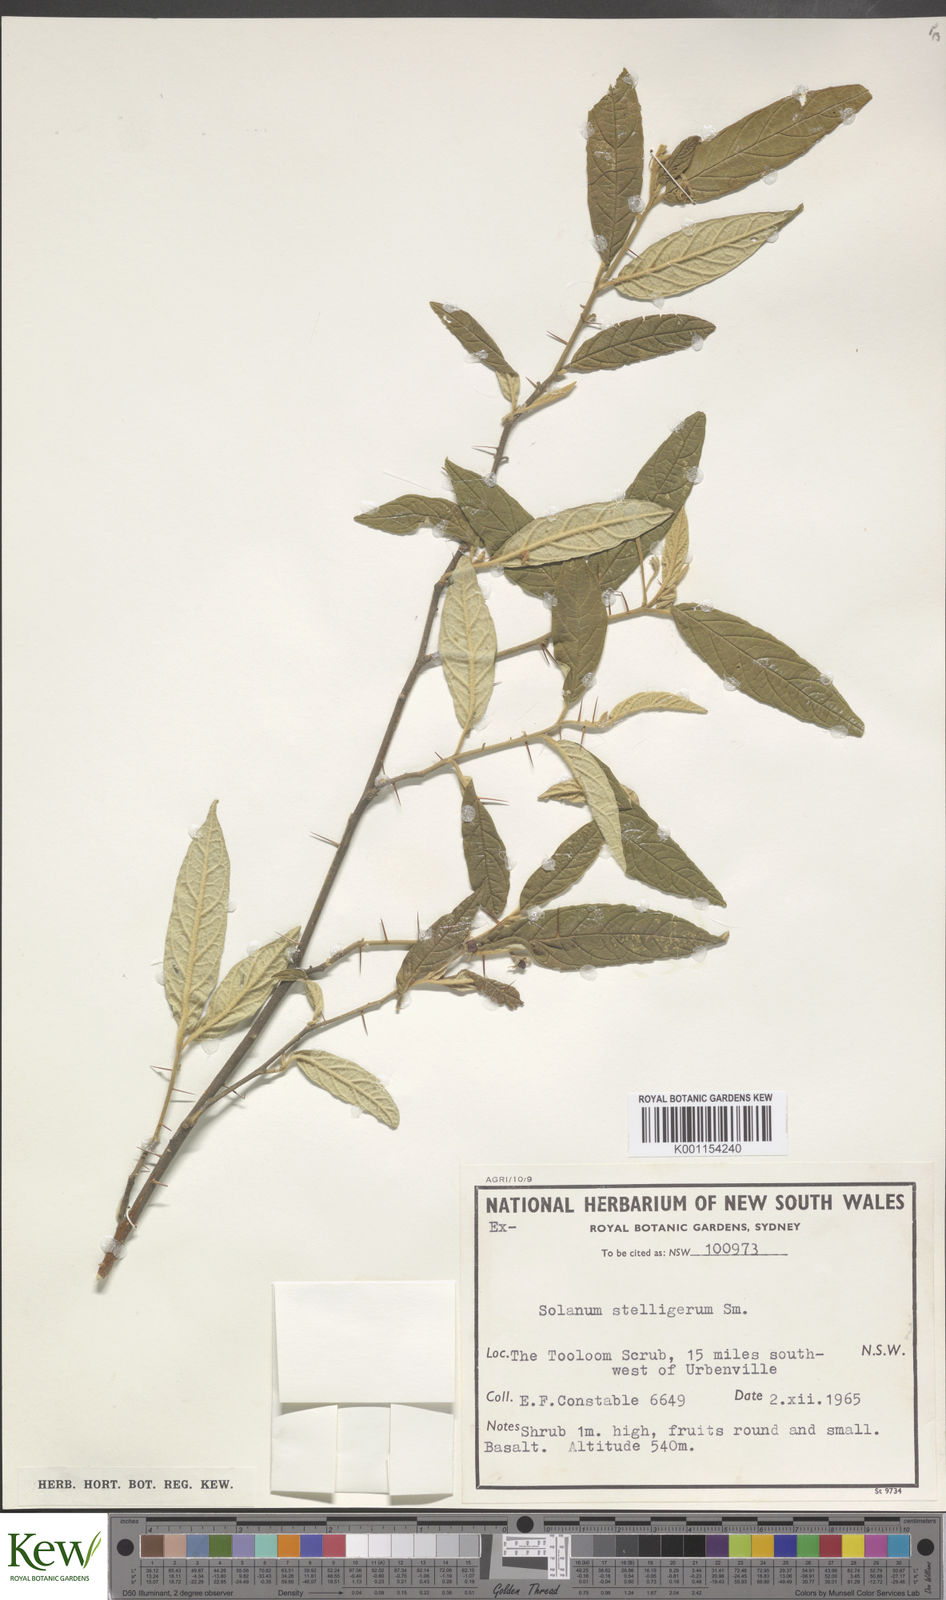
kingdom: Plantae
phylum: Tracheophyta
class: Magnoliopsida
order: Solanales
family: Solanaceae
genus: Solanum
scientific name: Solanum stelligerum
